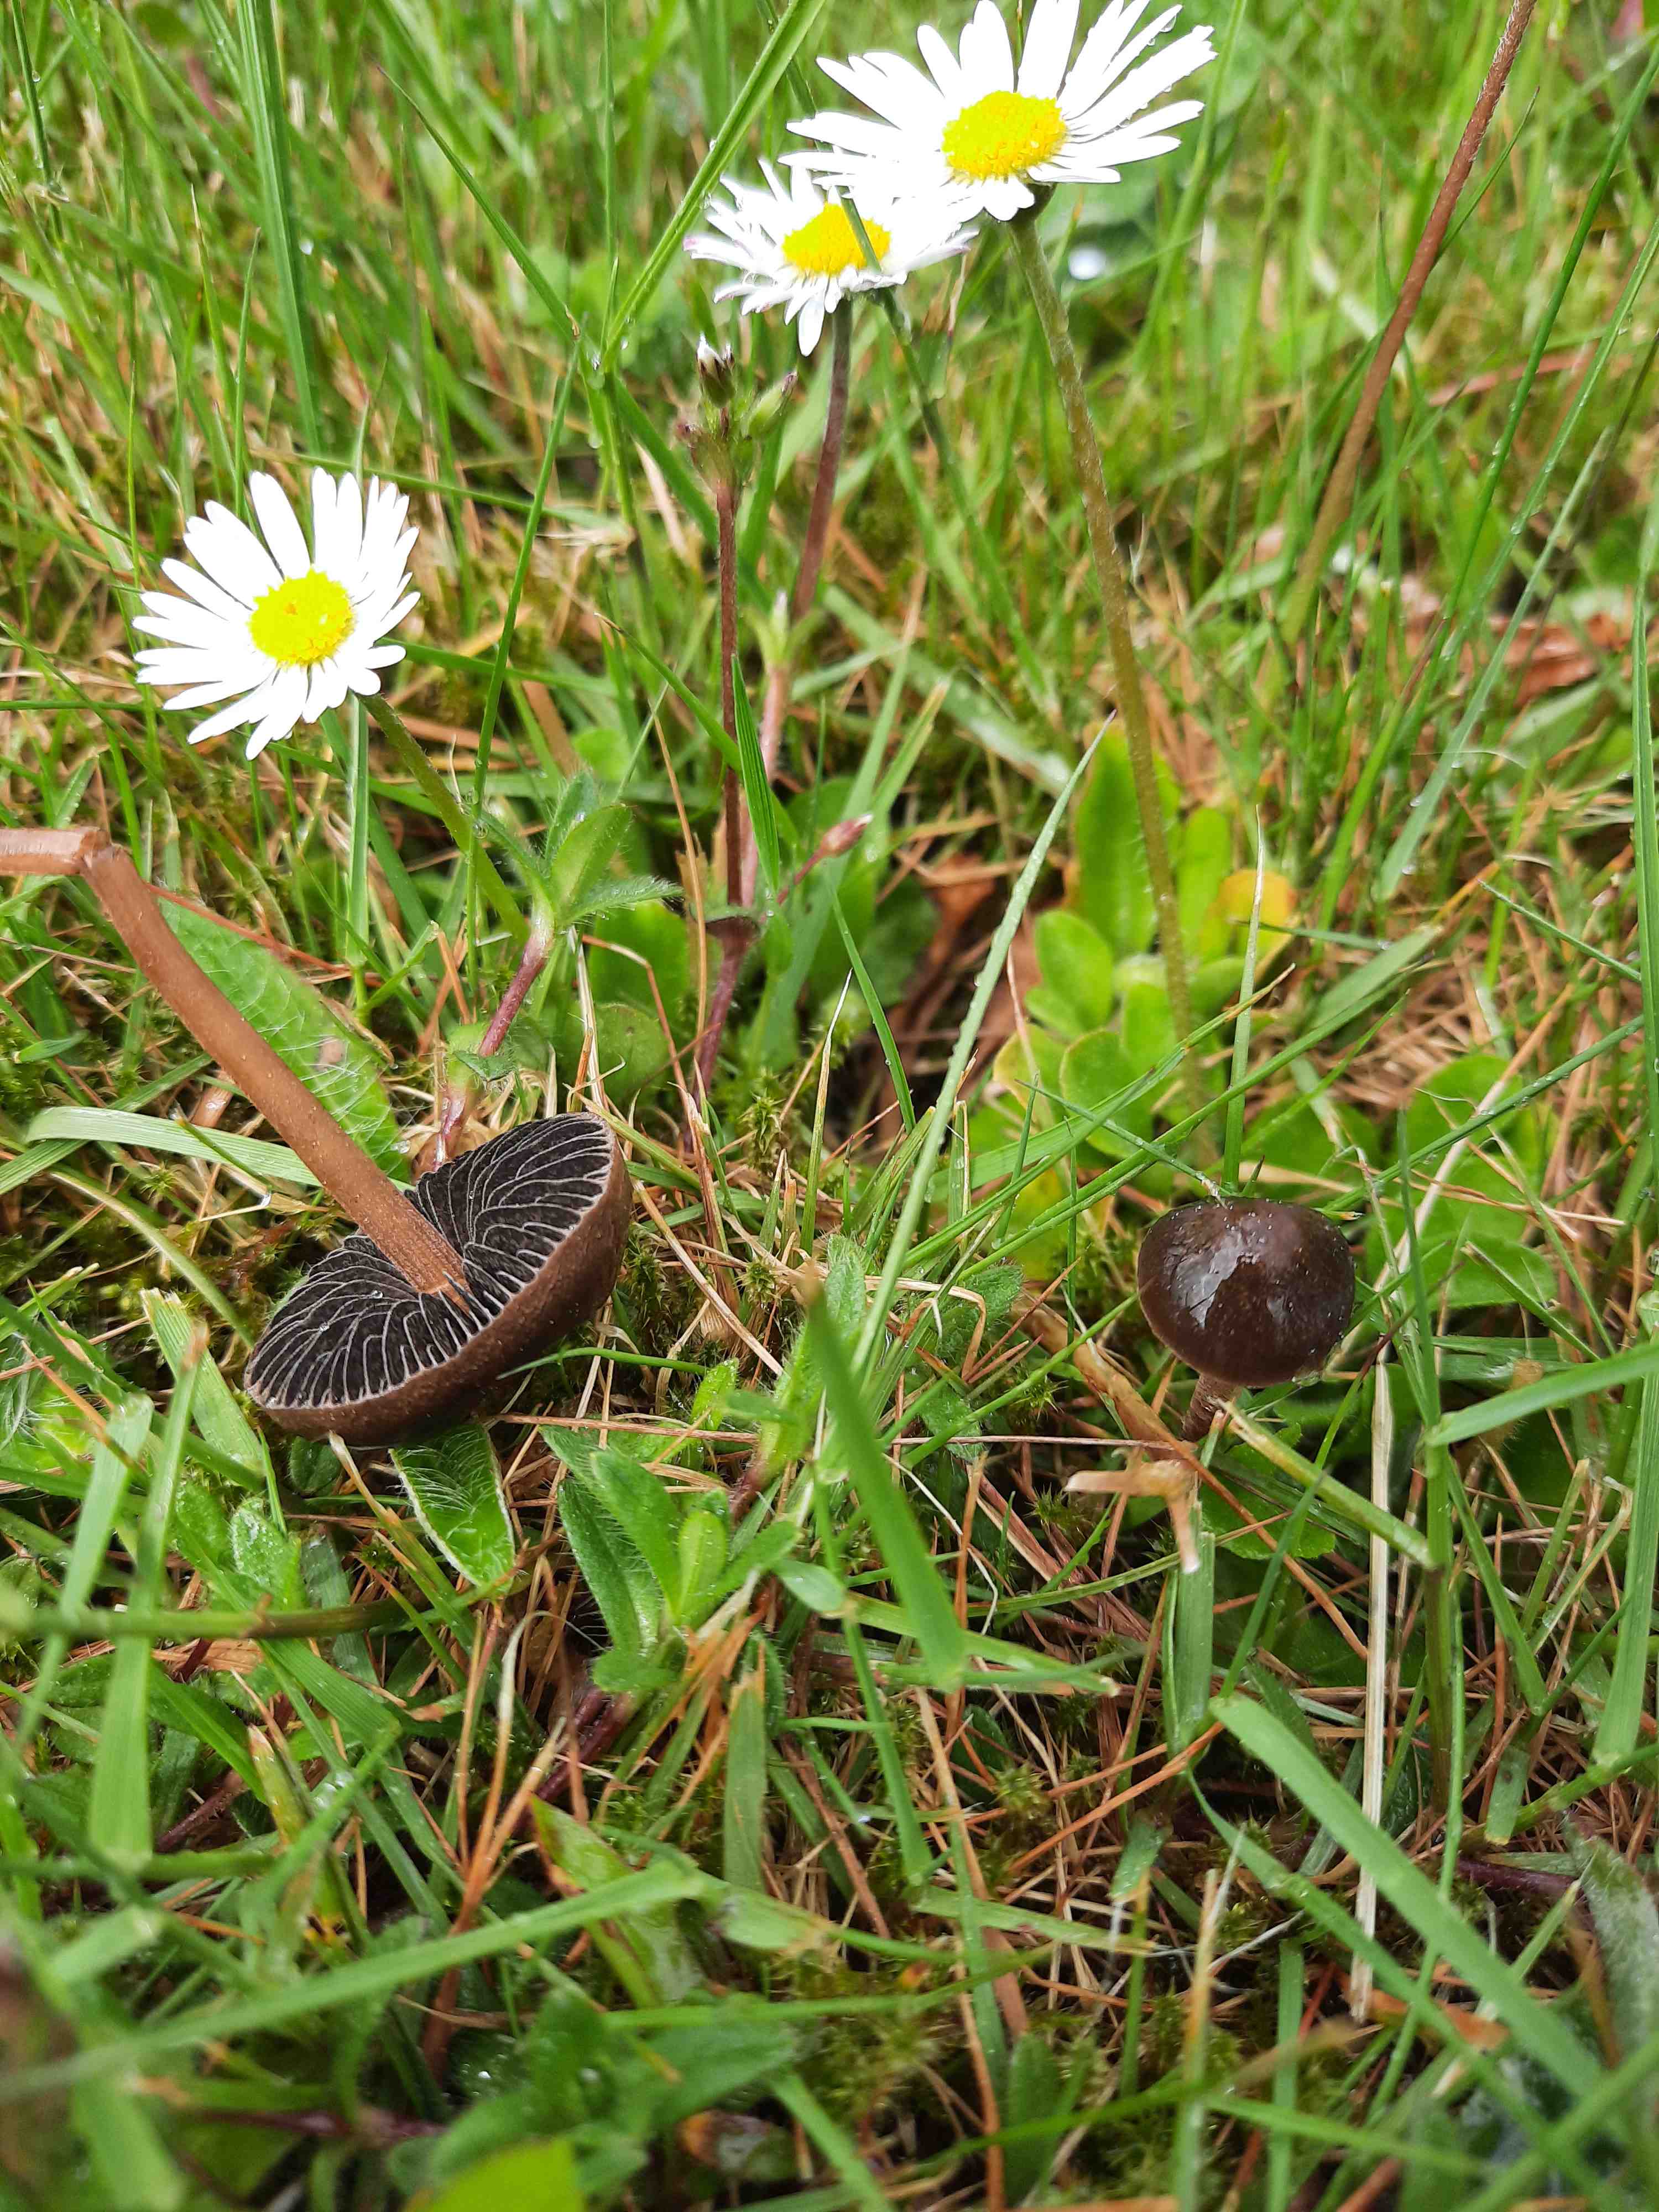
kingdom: Fungi
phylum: Basidiomycota
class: Agaricomycetes
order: Agaricales
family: Bolbitiaceae
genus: Panaeolus
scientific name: Panaeolus fimicola
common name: tidlig glanshat
